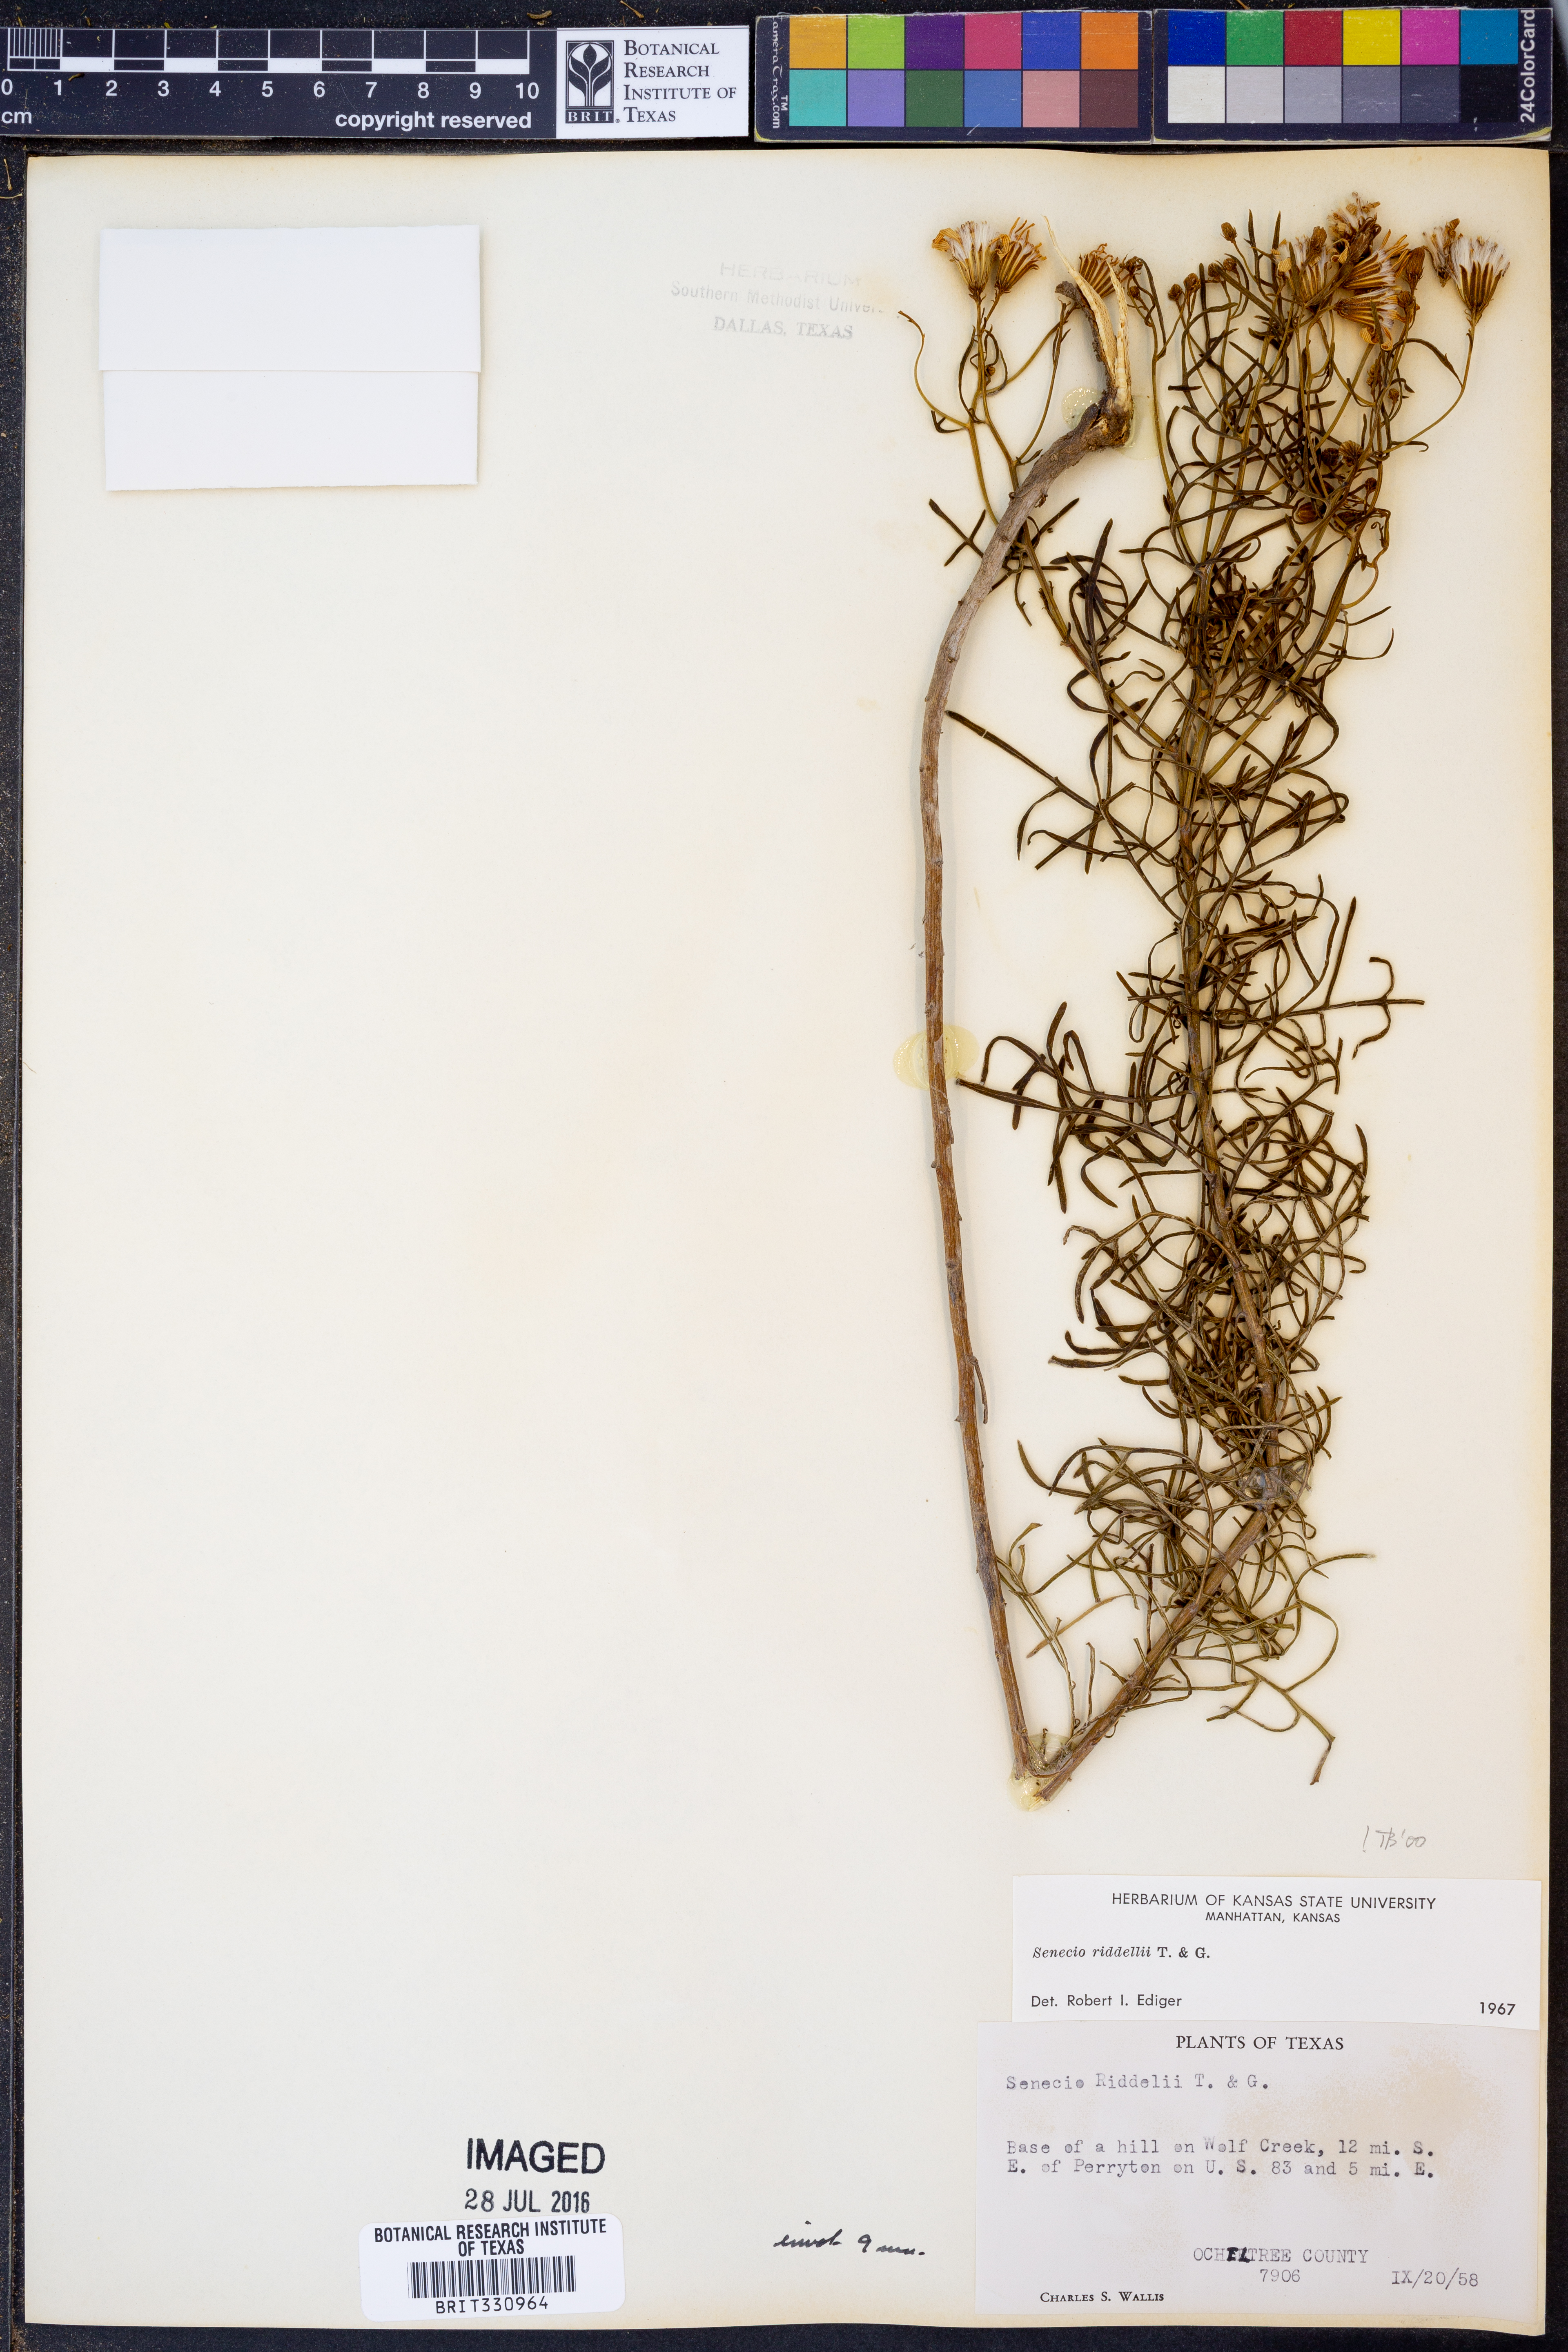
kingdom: Plantae
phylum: Tracheophyta
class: Magnoliopsida
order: Asterales
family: Asteraceae
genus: Senecio
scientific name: Senecio riddellii
